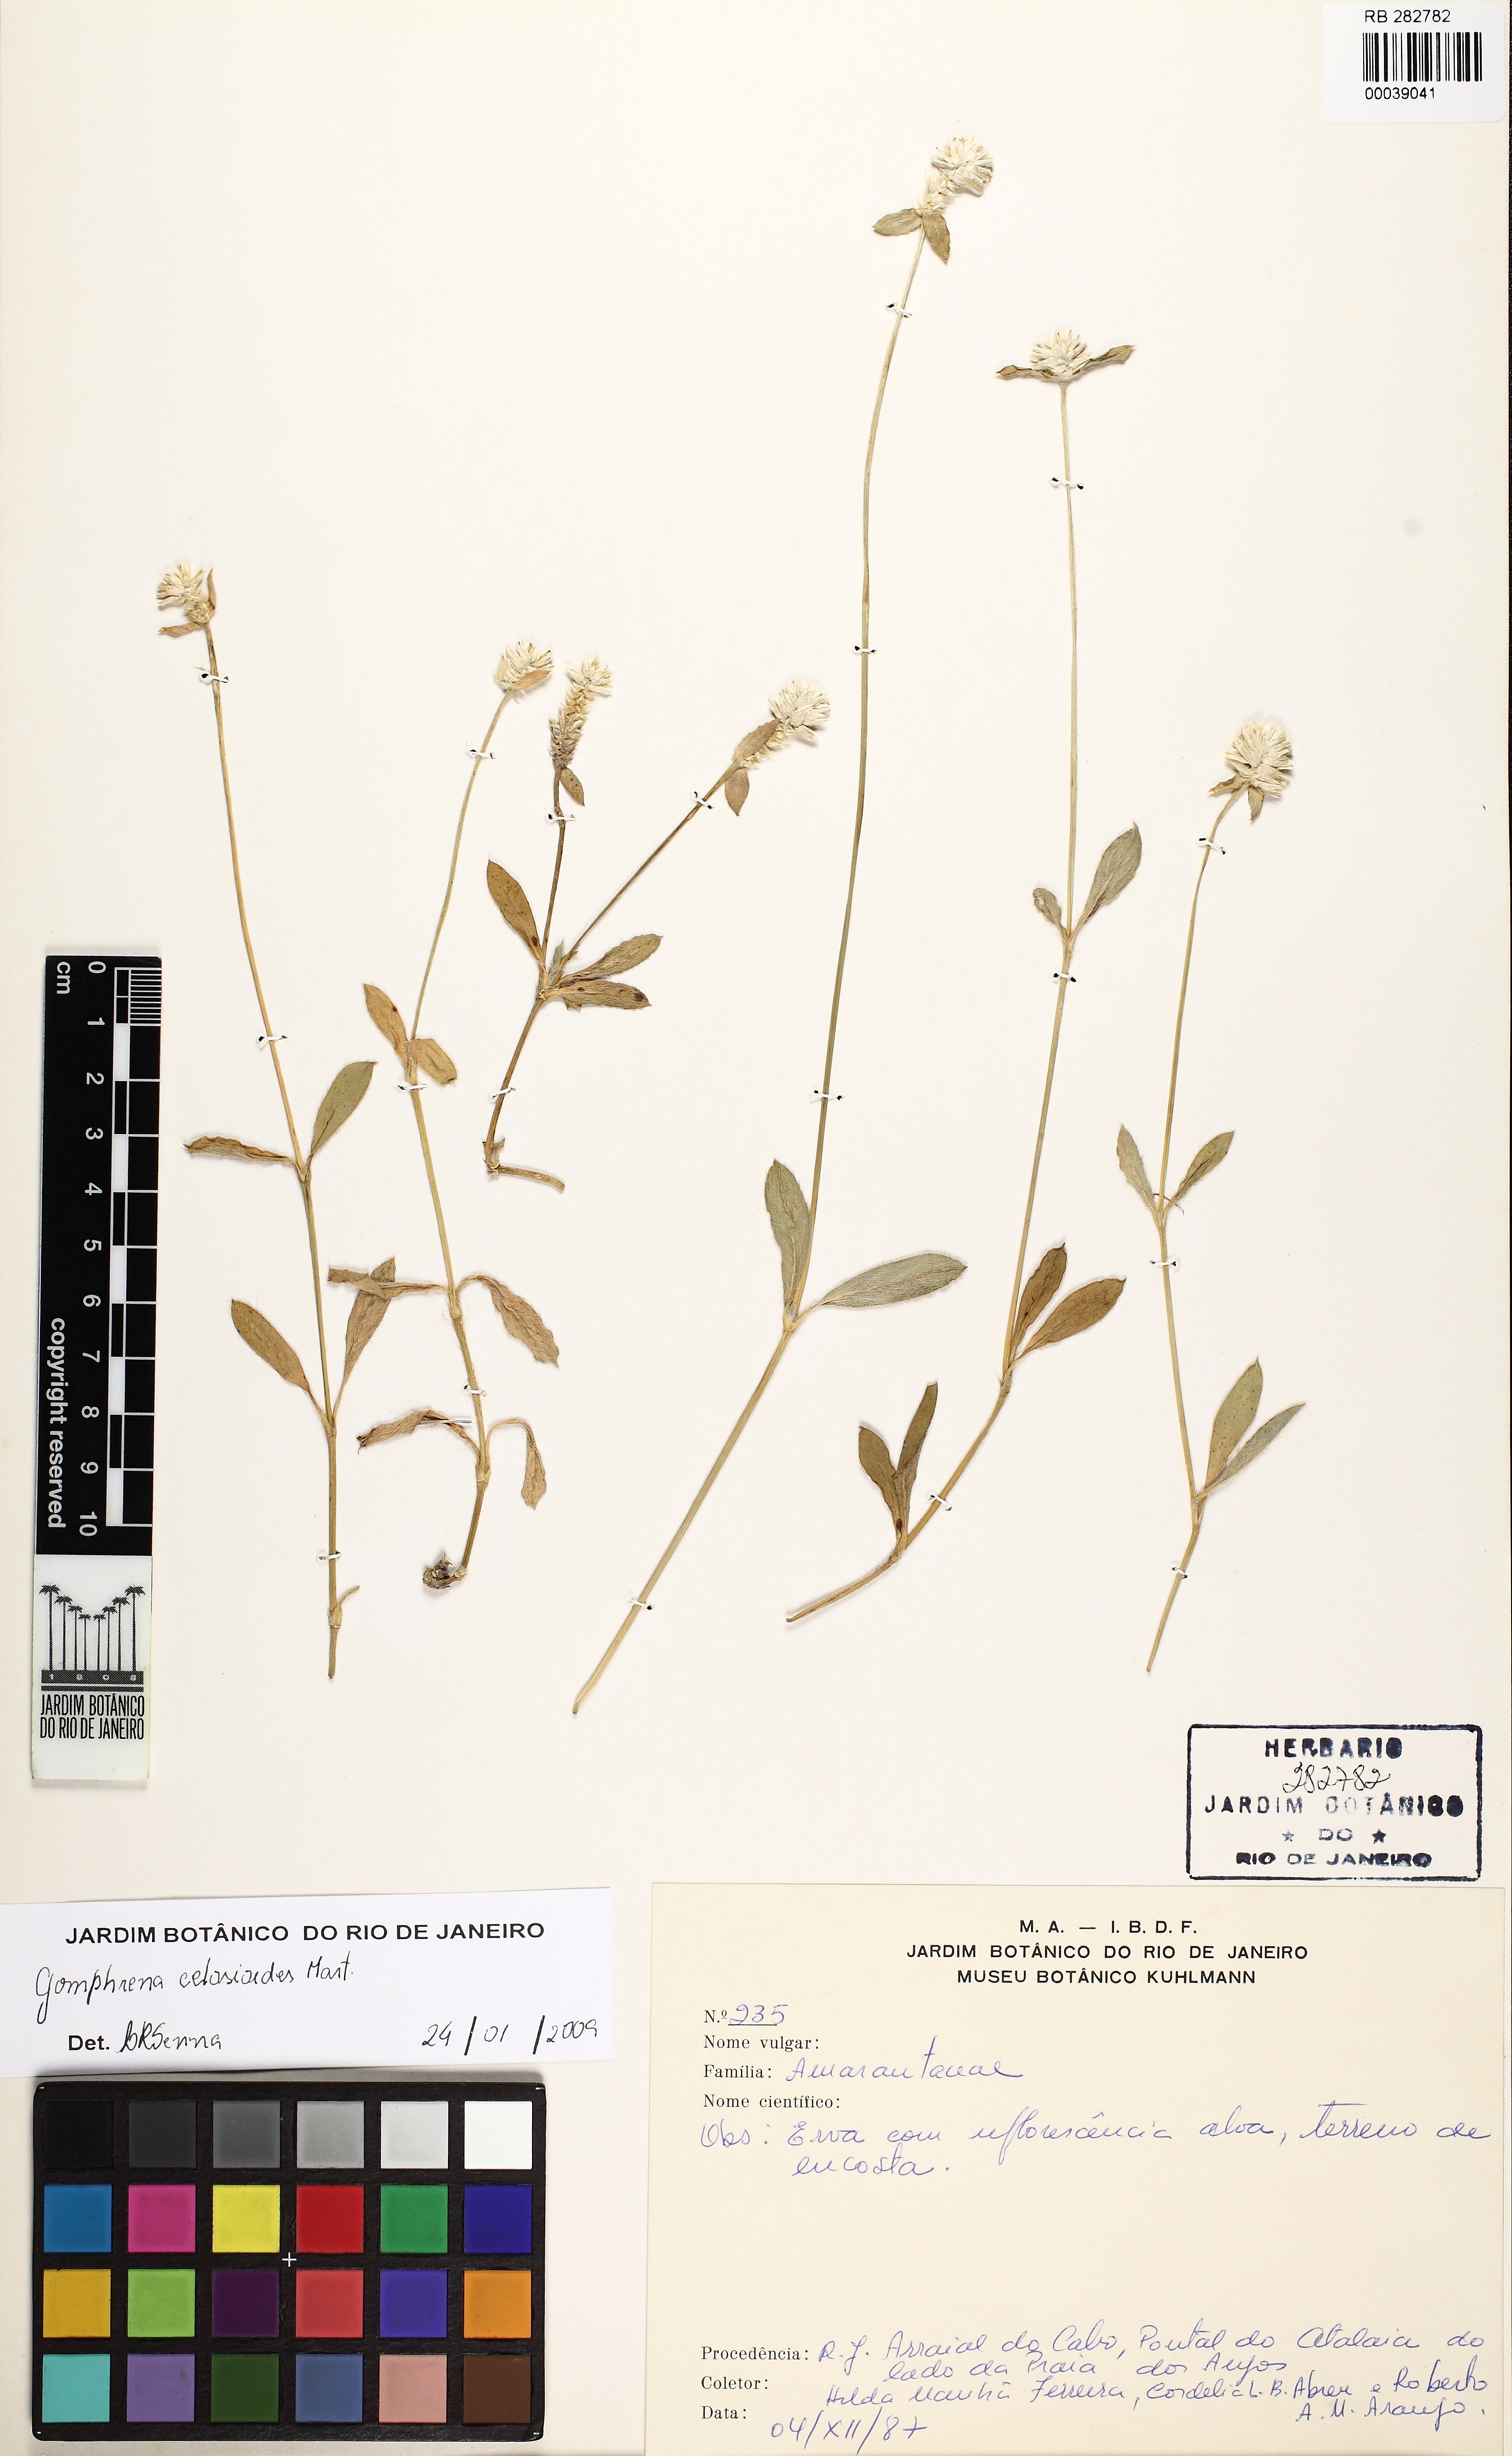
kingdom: Plantae
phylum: Tracheophyta
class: Magnoliopsida
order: Caryophyllales
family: Amaranthaceae
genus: Gomphrena
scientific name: Gomphrena celosioides
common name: Gomphrena-weed
